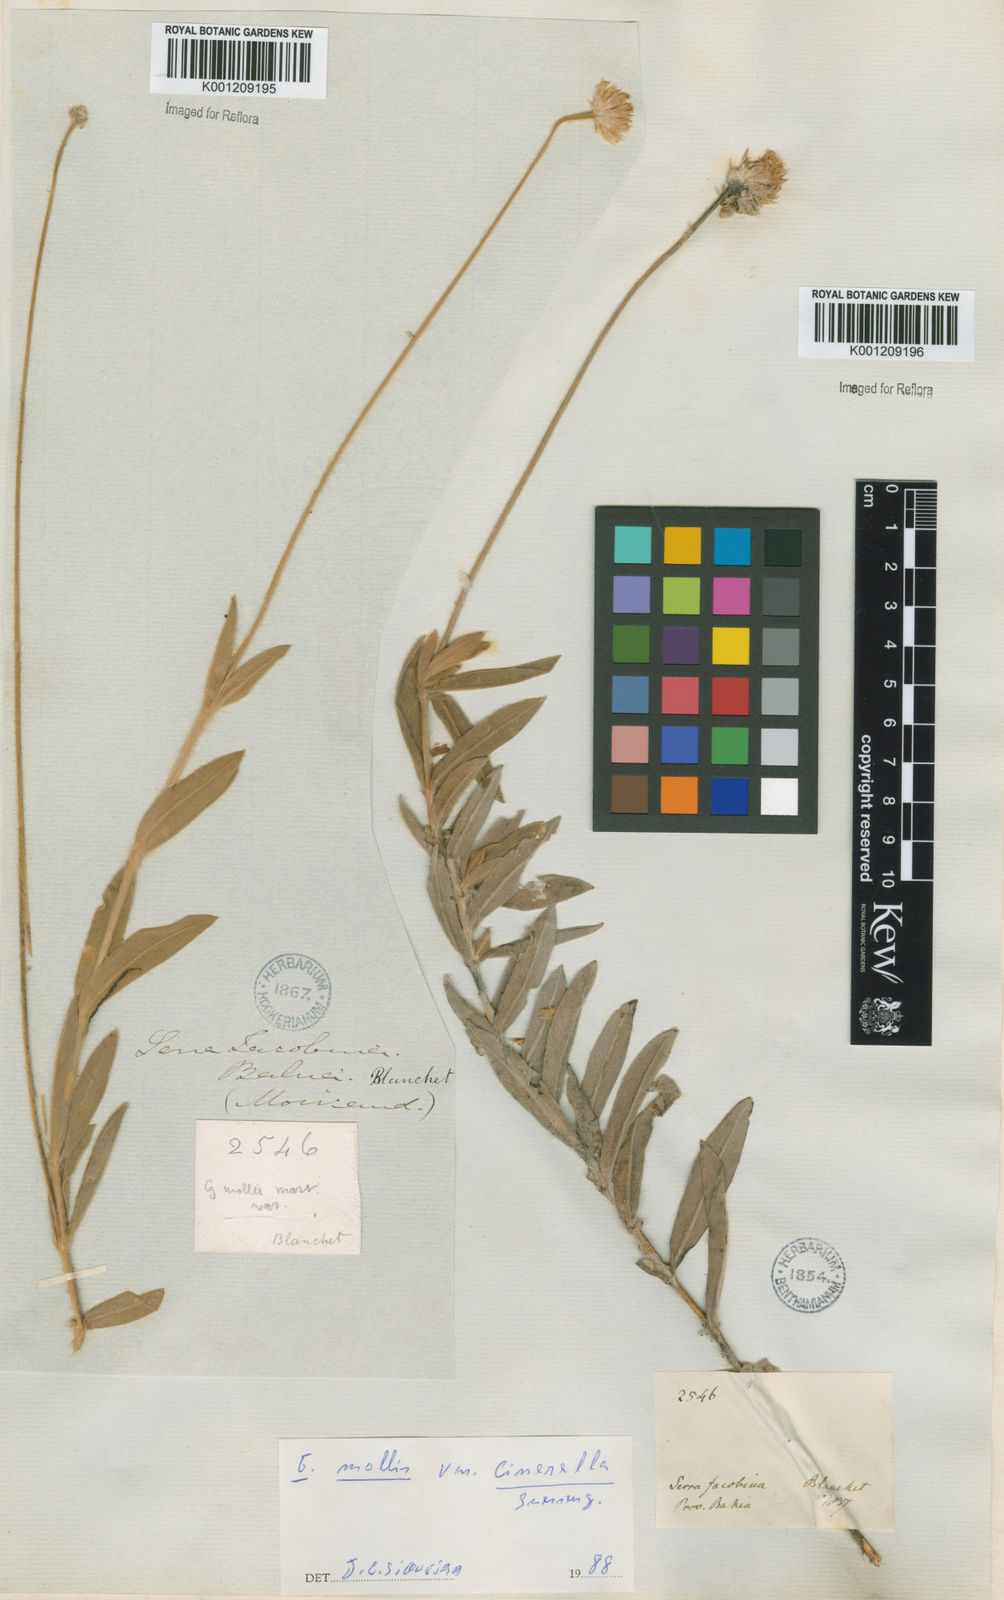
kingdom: Plantae
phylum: Tracheophyta
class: Magnoliopsida
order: Caryophyllales
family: Amaranthaceae
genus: Gomphrena
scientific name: Gomphrena mollis
